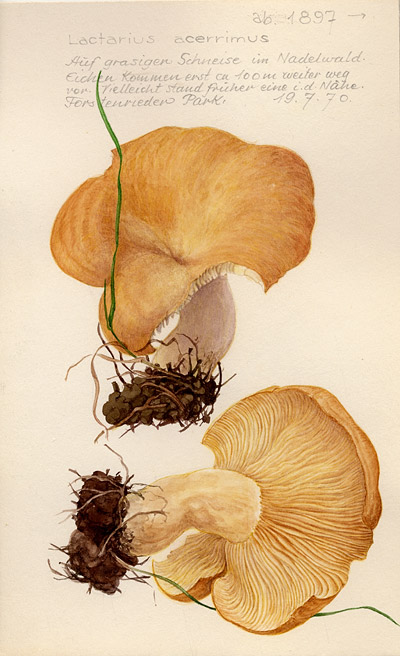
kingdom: Fungi
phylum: Basidiomycota
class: Agaricomycetes
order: Russulales
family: Russulaceae
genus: Lactarius
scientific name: Lactarius acerrimus
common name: Two-spored milkcap
